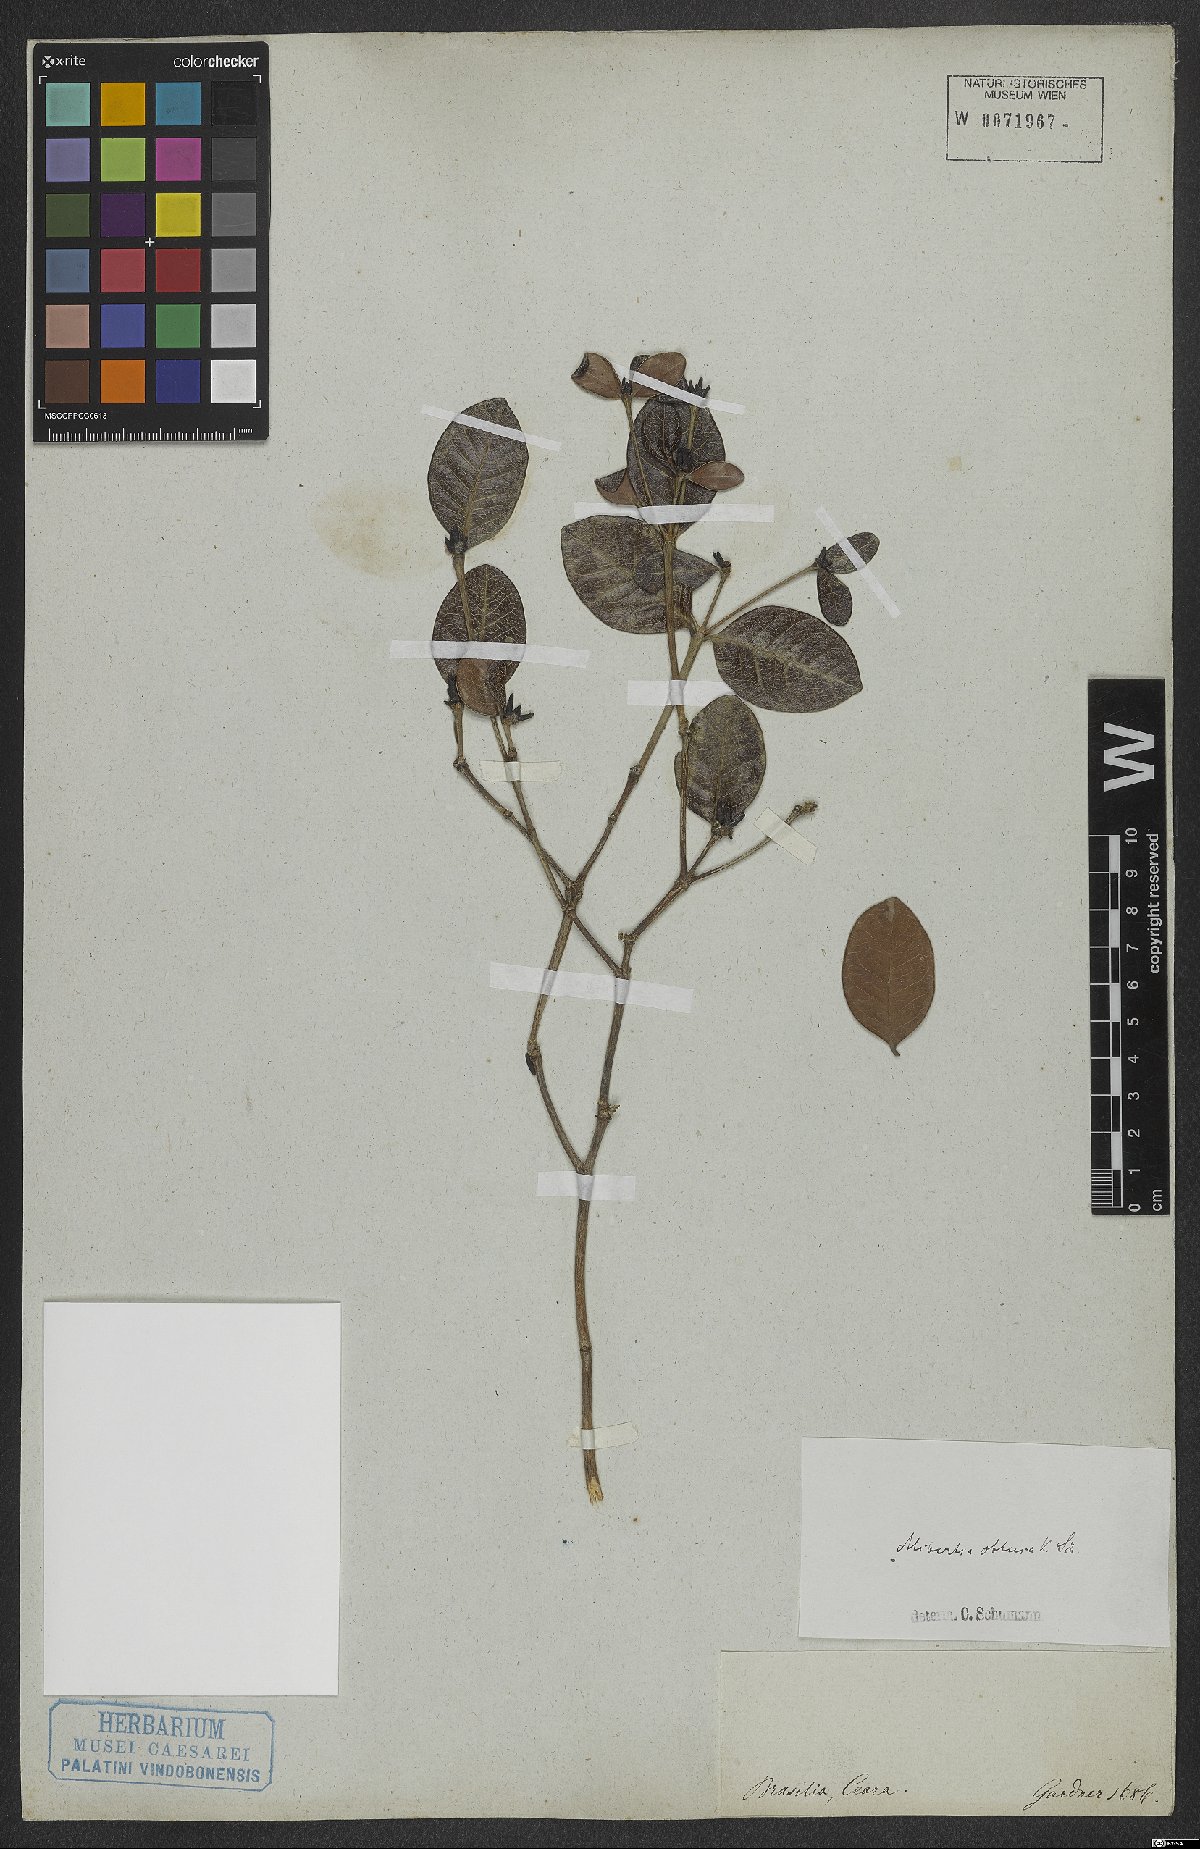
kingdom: Plantae
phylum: Tracheophyta
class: Magnoliopsida
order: Gentianales
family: Rubiaceae
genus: Cordiera
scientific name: Cordiera obtusa
